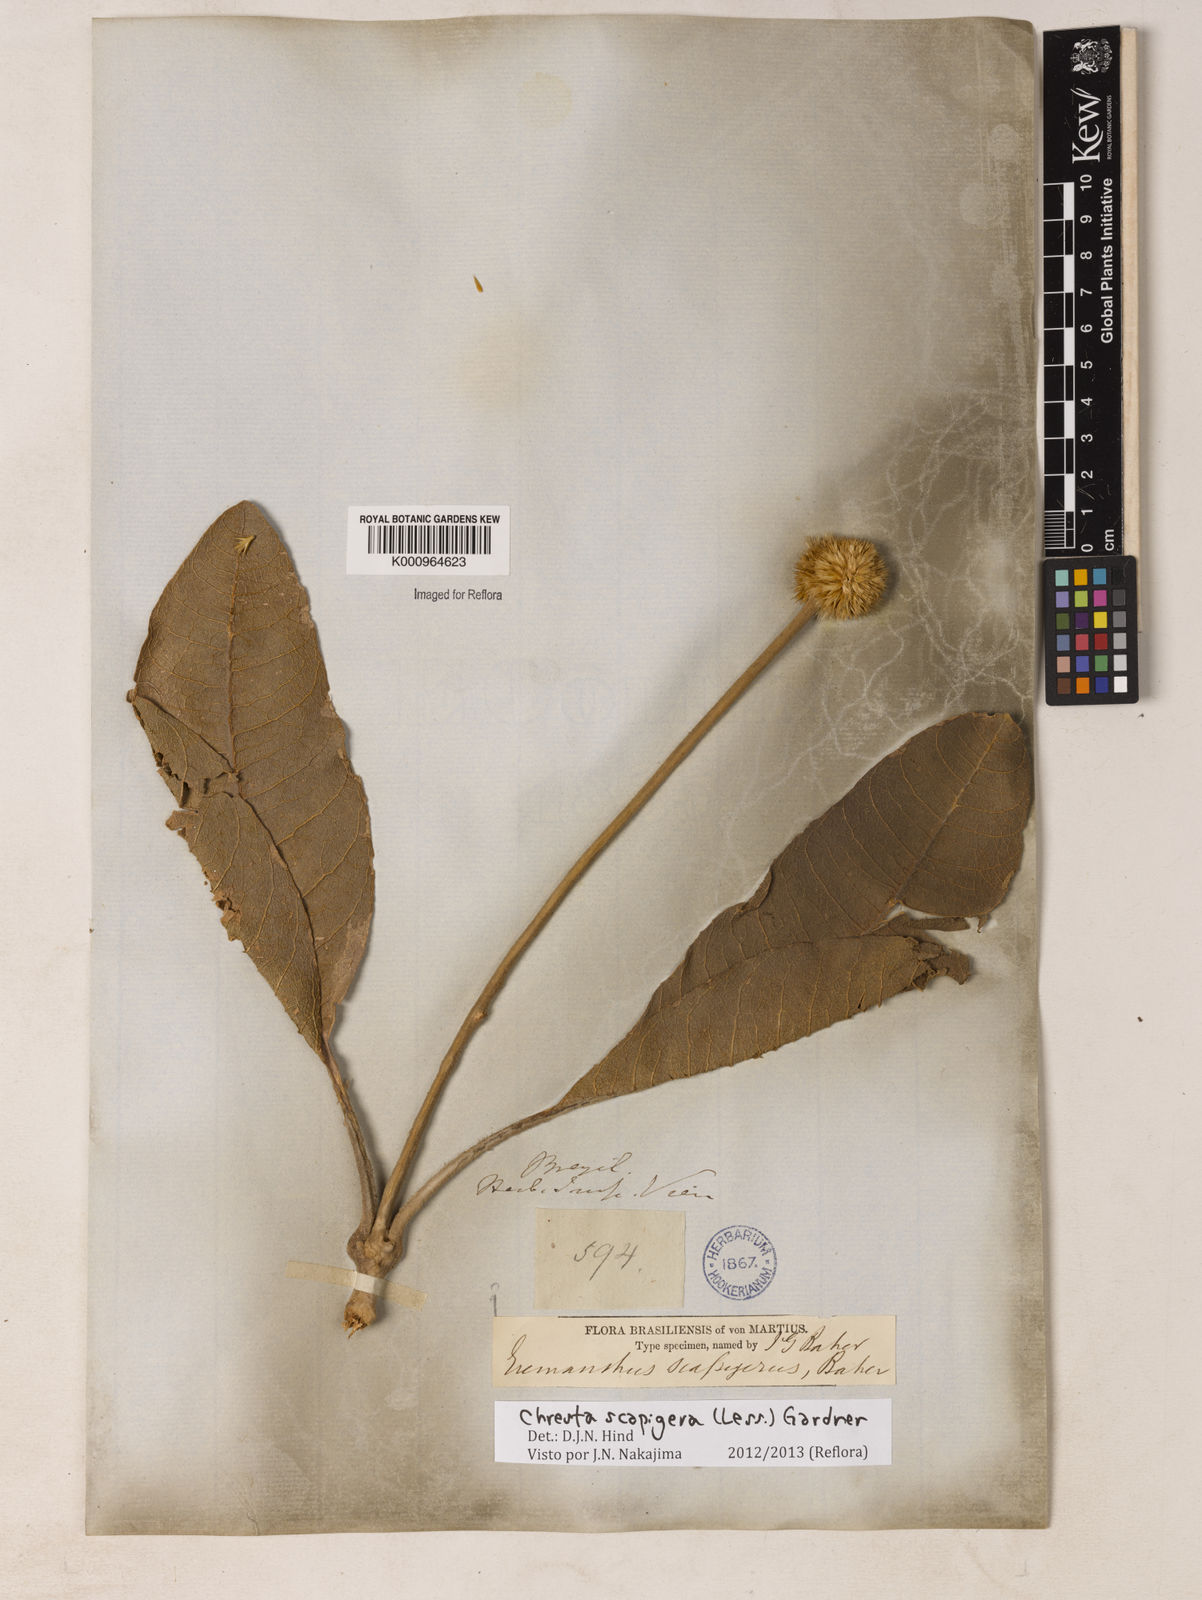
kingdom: Plantae
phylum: Tracheophyta
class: Magnoliopsida
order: Asterales
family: Asteraceae
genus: Chresta
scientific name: Chresta scapigera
